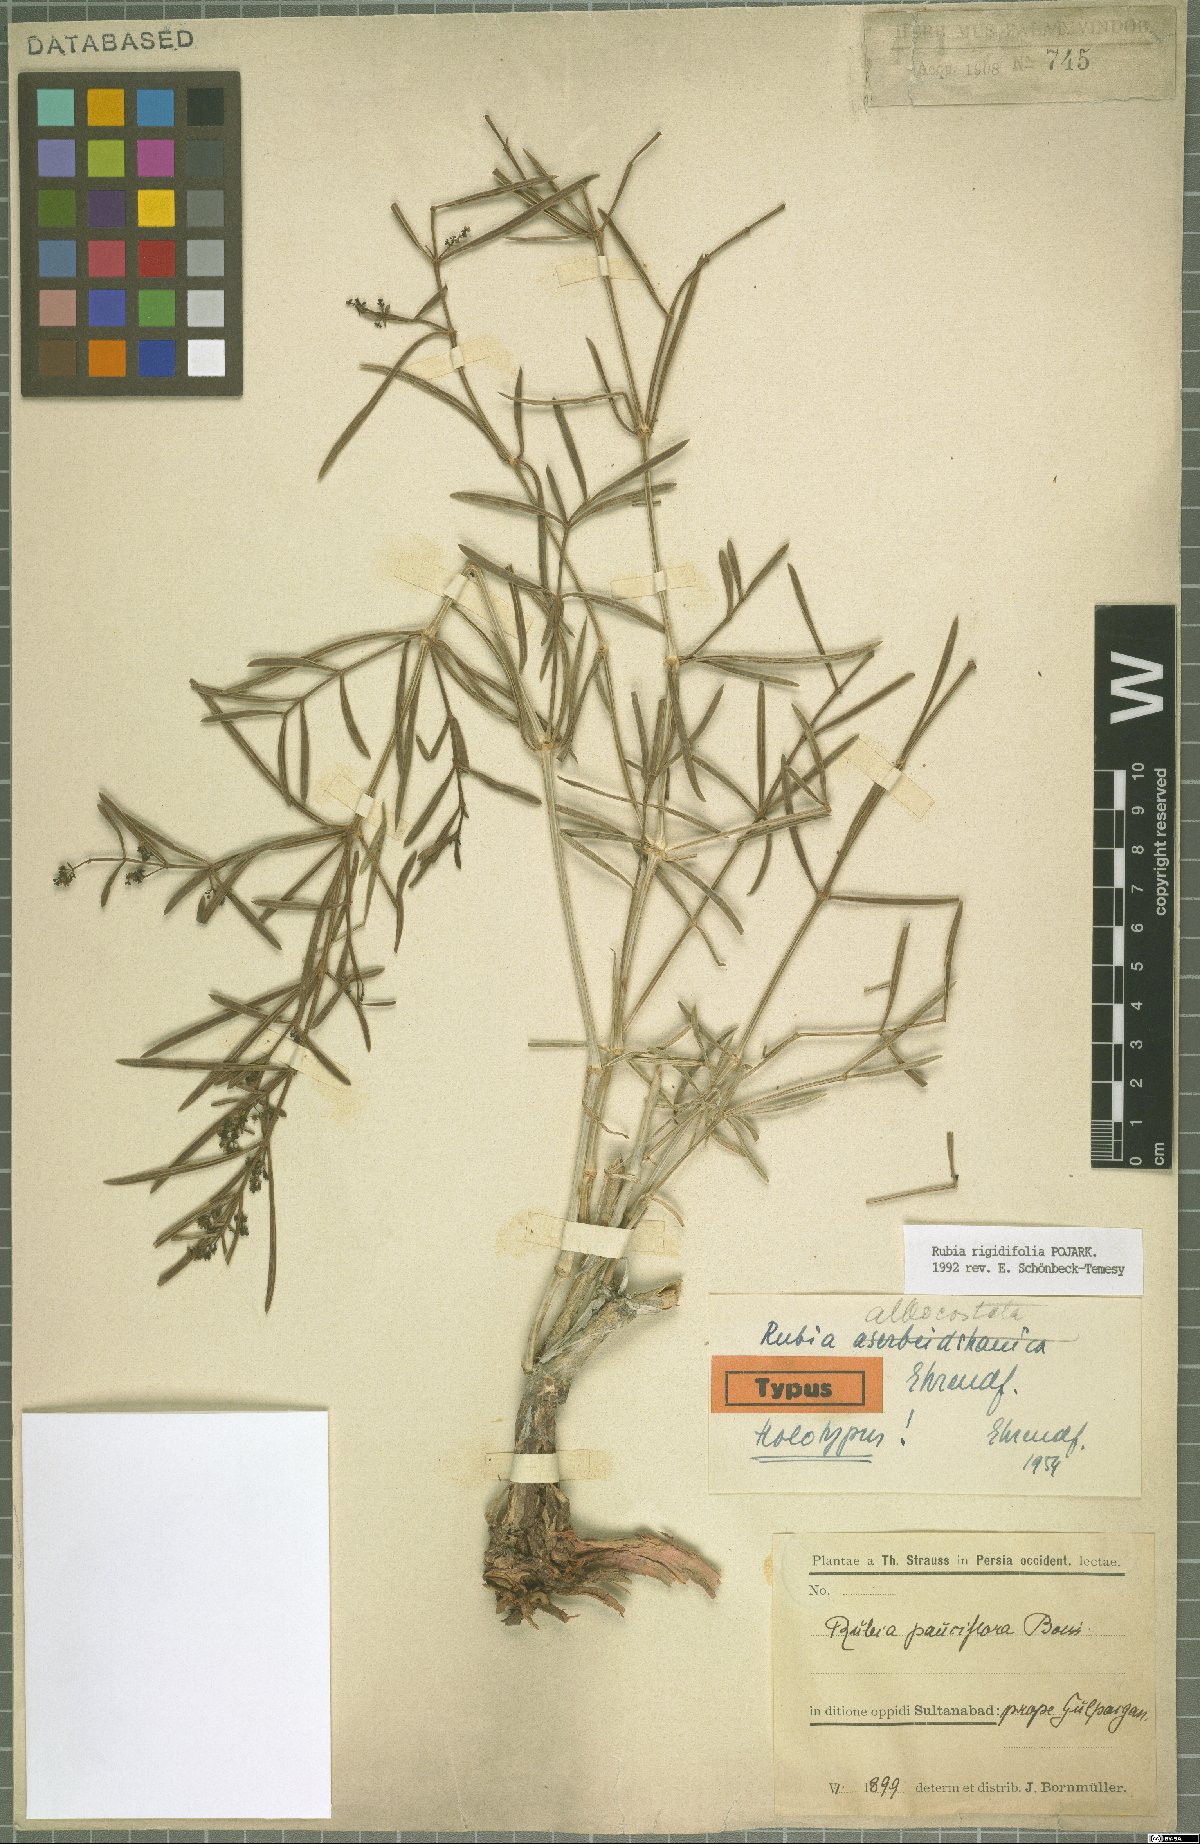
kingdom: Plantae
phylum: Tracheophyta
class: Magnoliopsida
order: Gentianales
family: Rubiaceae
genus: Rubia
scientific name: Rubia rigidifolia
